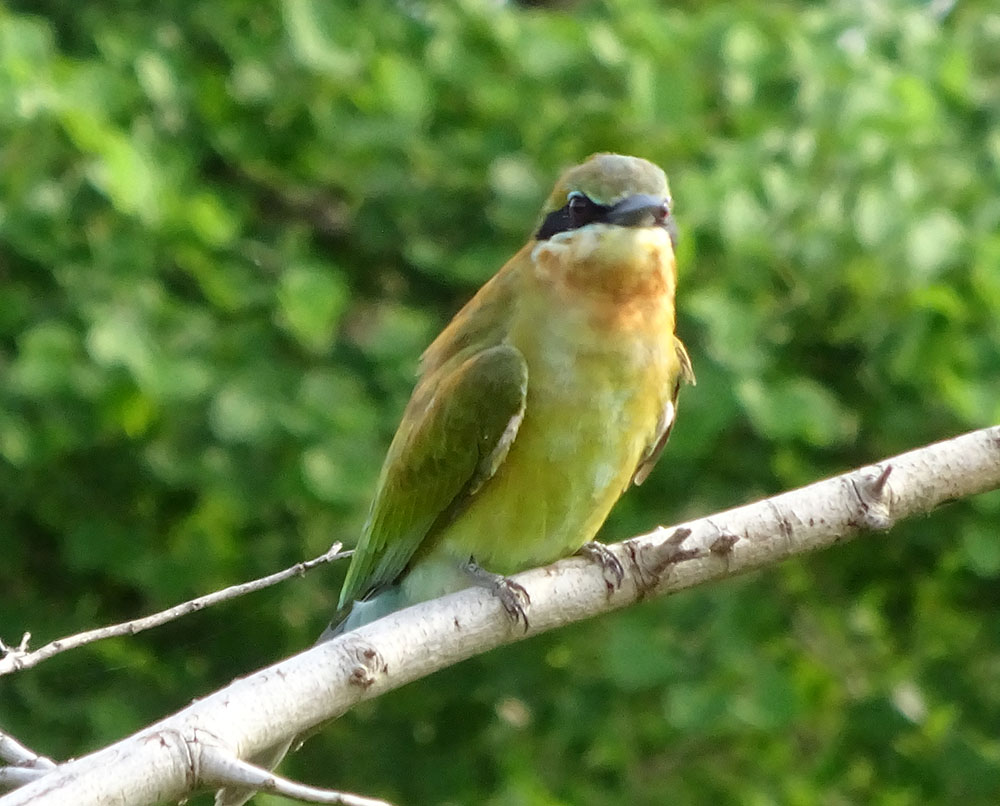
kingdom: Animalia
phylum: Chordata
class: Aves
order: Coraciiformes
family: Meropidae
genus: Merops
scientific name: Merops philippinus
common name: Blue-tailed bee-eater
